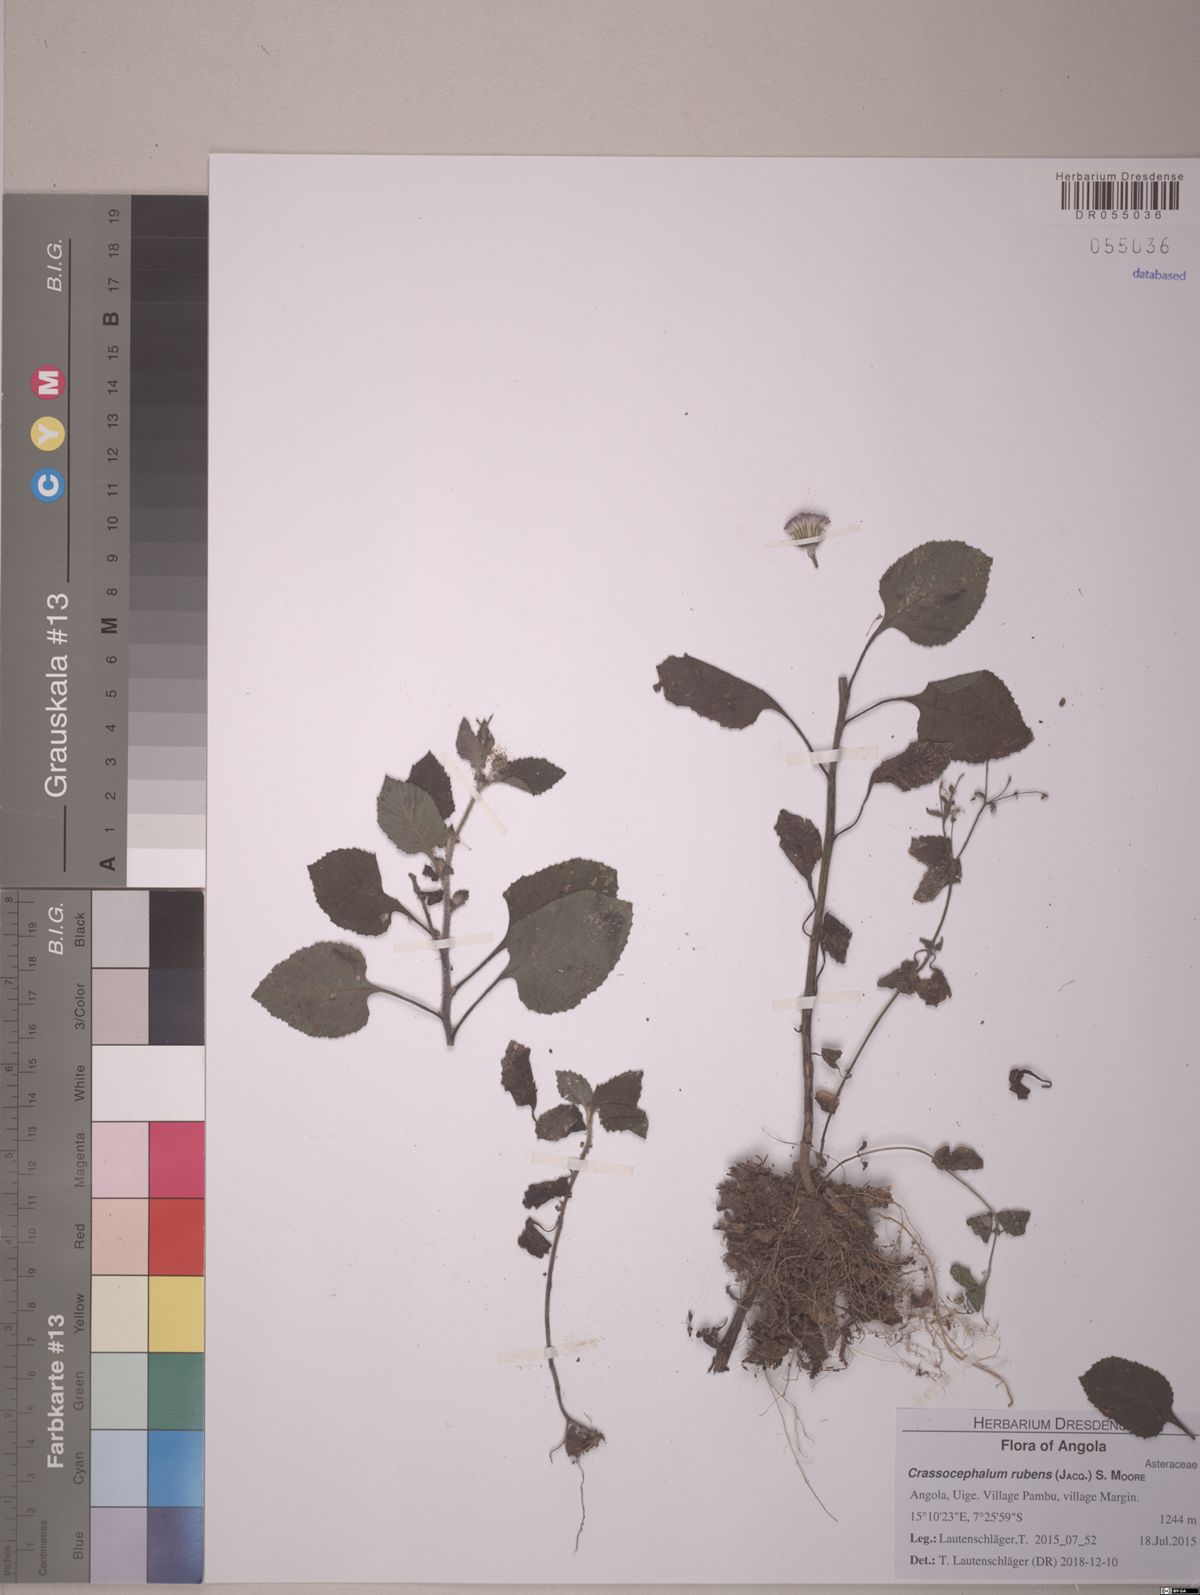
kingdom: Plantae
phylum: Tracheophyta
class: Magnoliopsida
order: Asterales
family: Asteraceae
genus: Crassocephalum
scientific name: Crassocephalum rubens
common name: Yoruban bologi
